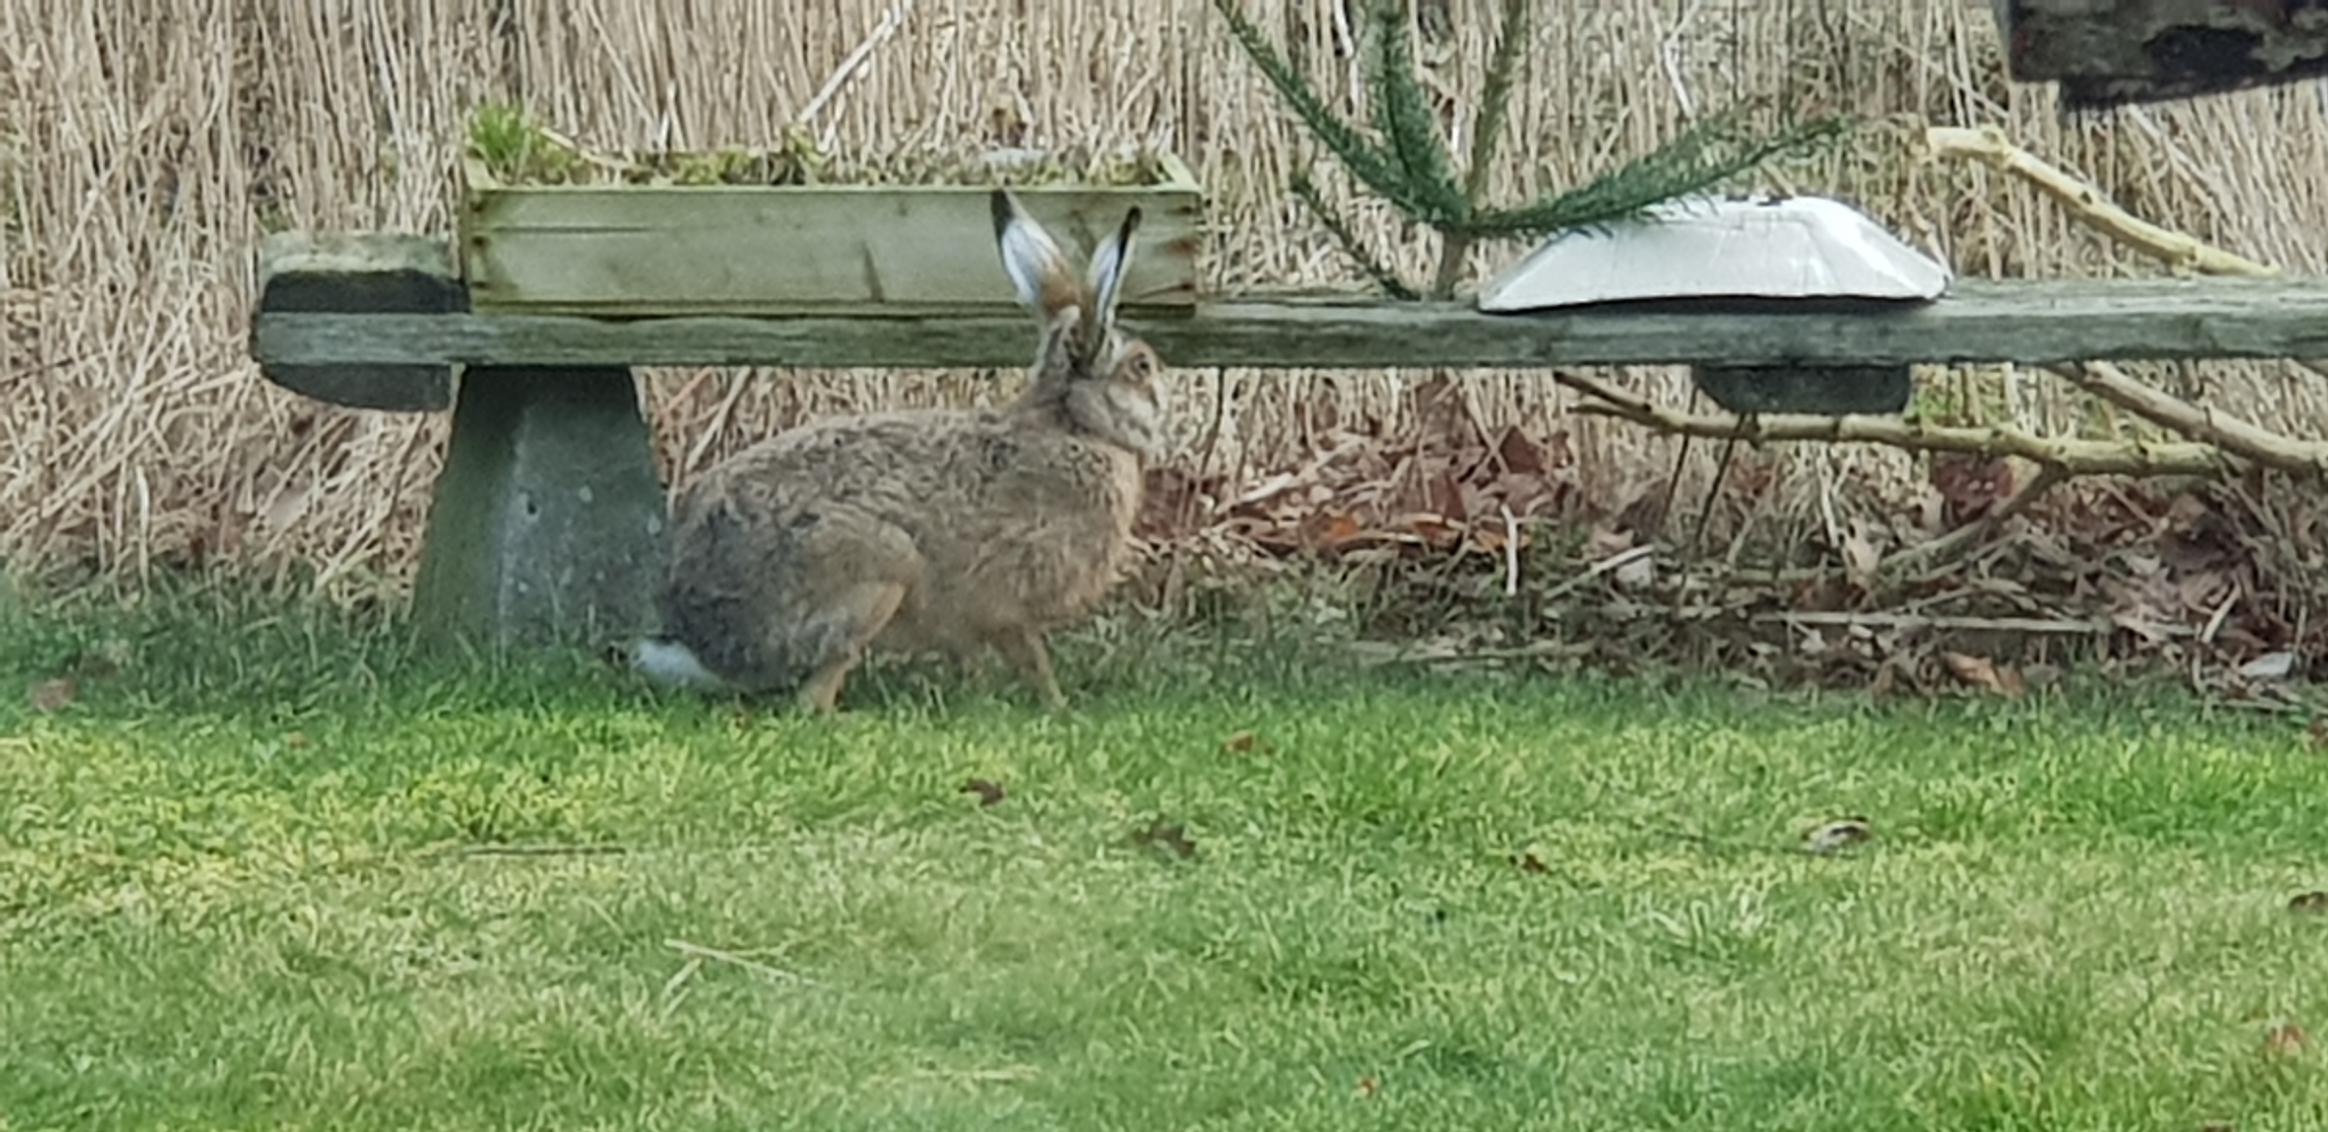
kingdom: Animalia
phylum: Chordata
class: Mammalia
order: Lagomorpha
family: Leporidae
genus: Lepus
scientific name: Lepus europaeus
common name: Hare
